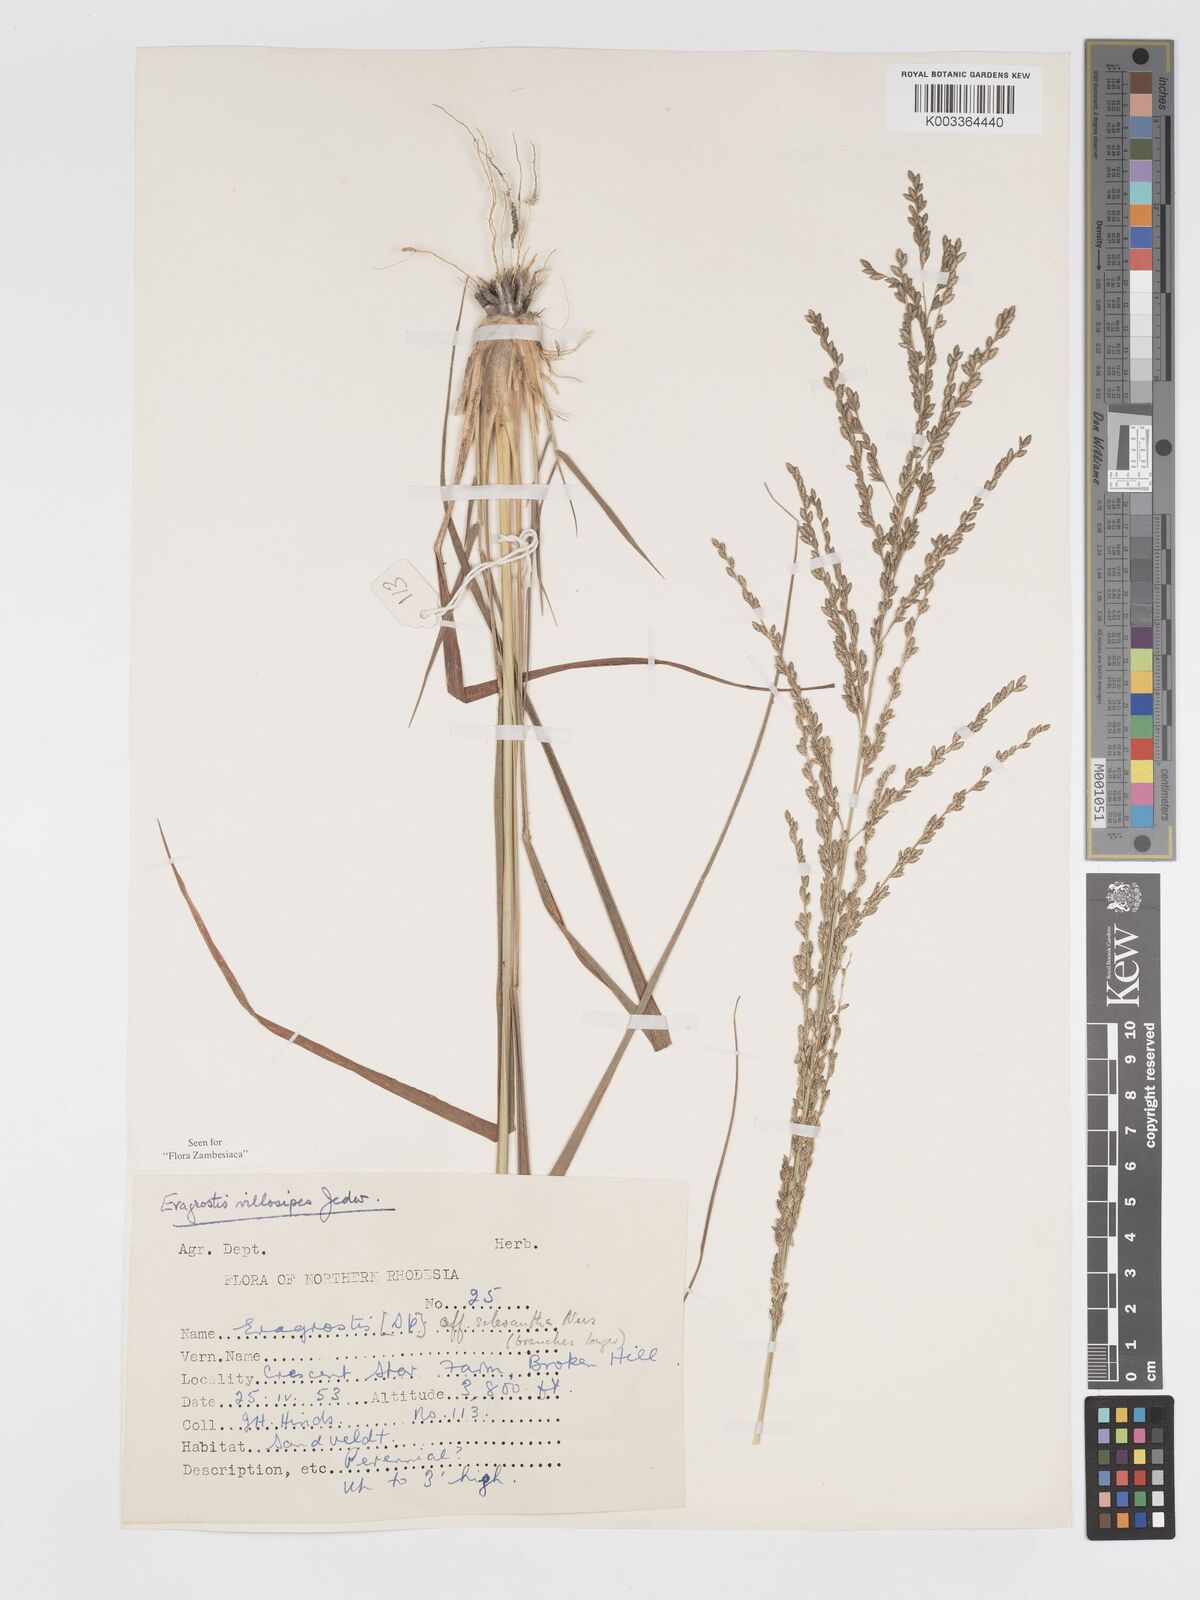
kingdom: Plantae
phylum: Tracheophyta
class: Liliopsida
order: Poales
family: Poaceae
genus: Eragrostis
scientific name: Eragrostis sclerantha
